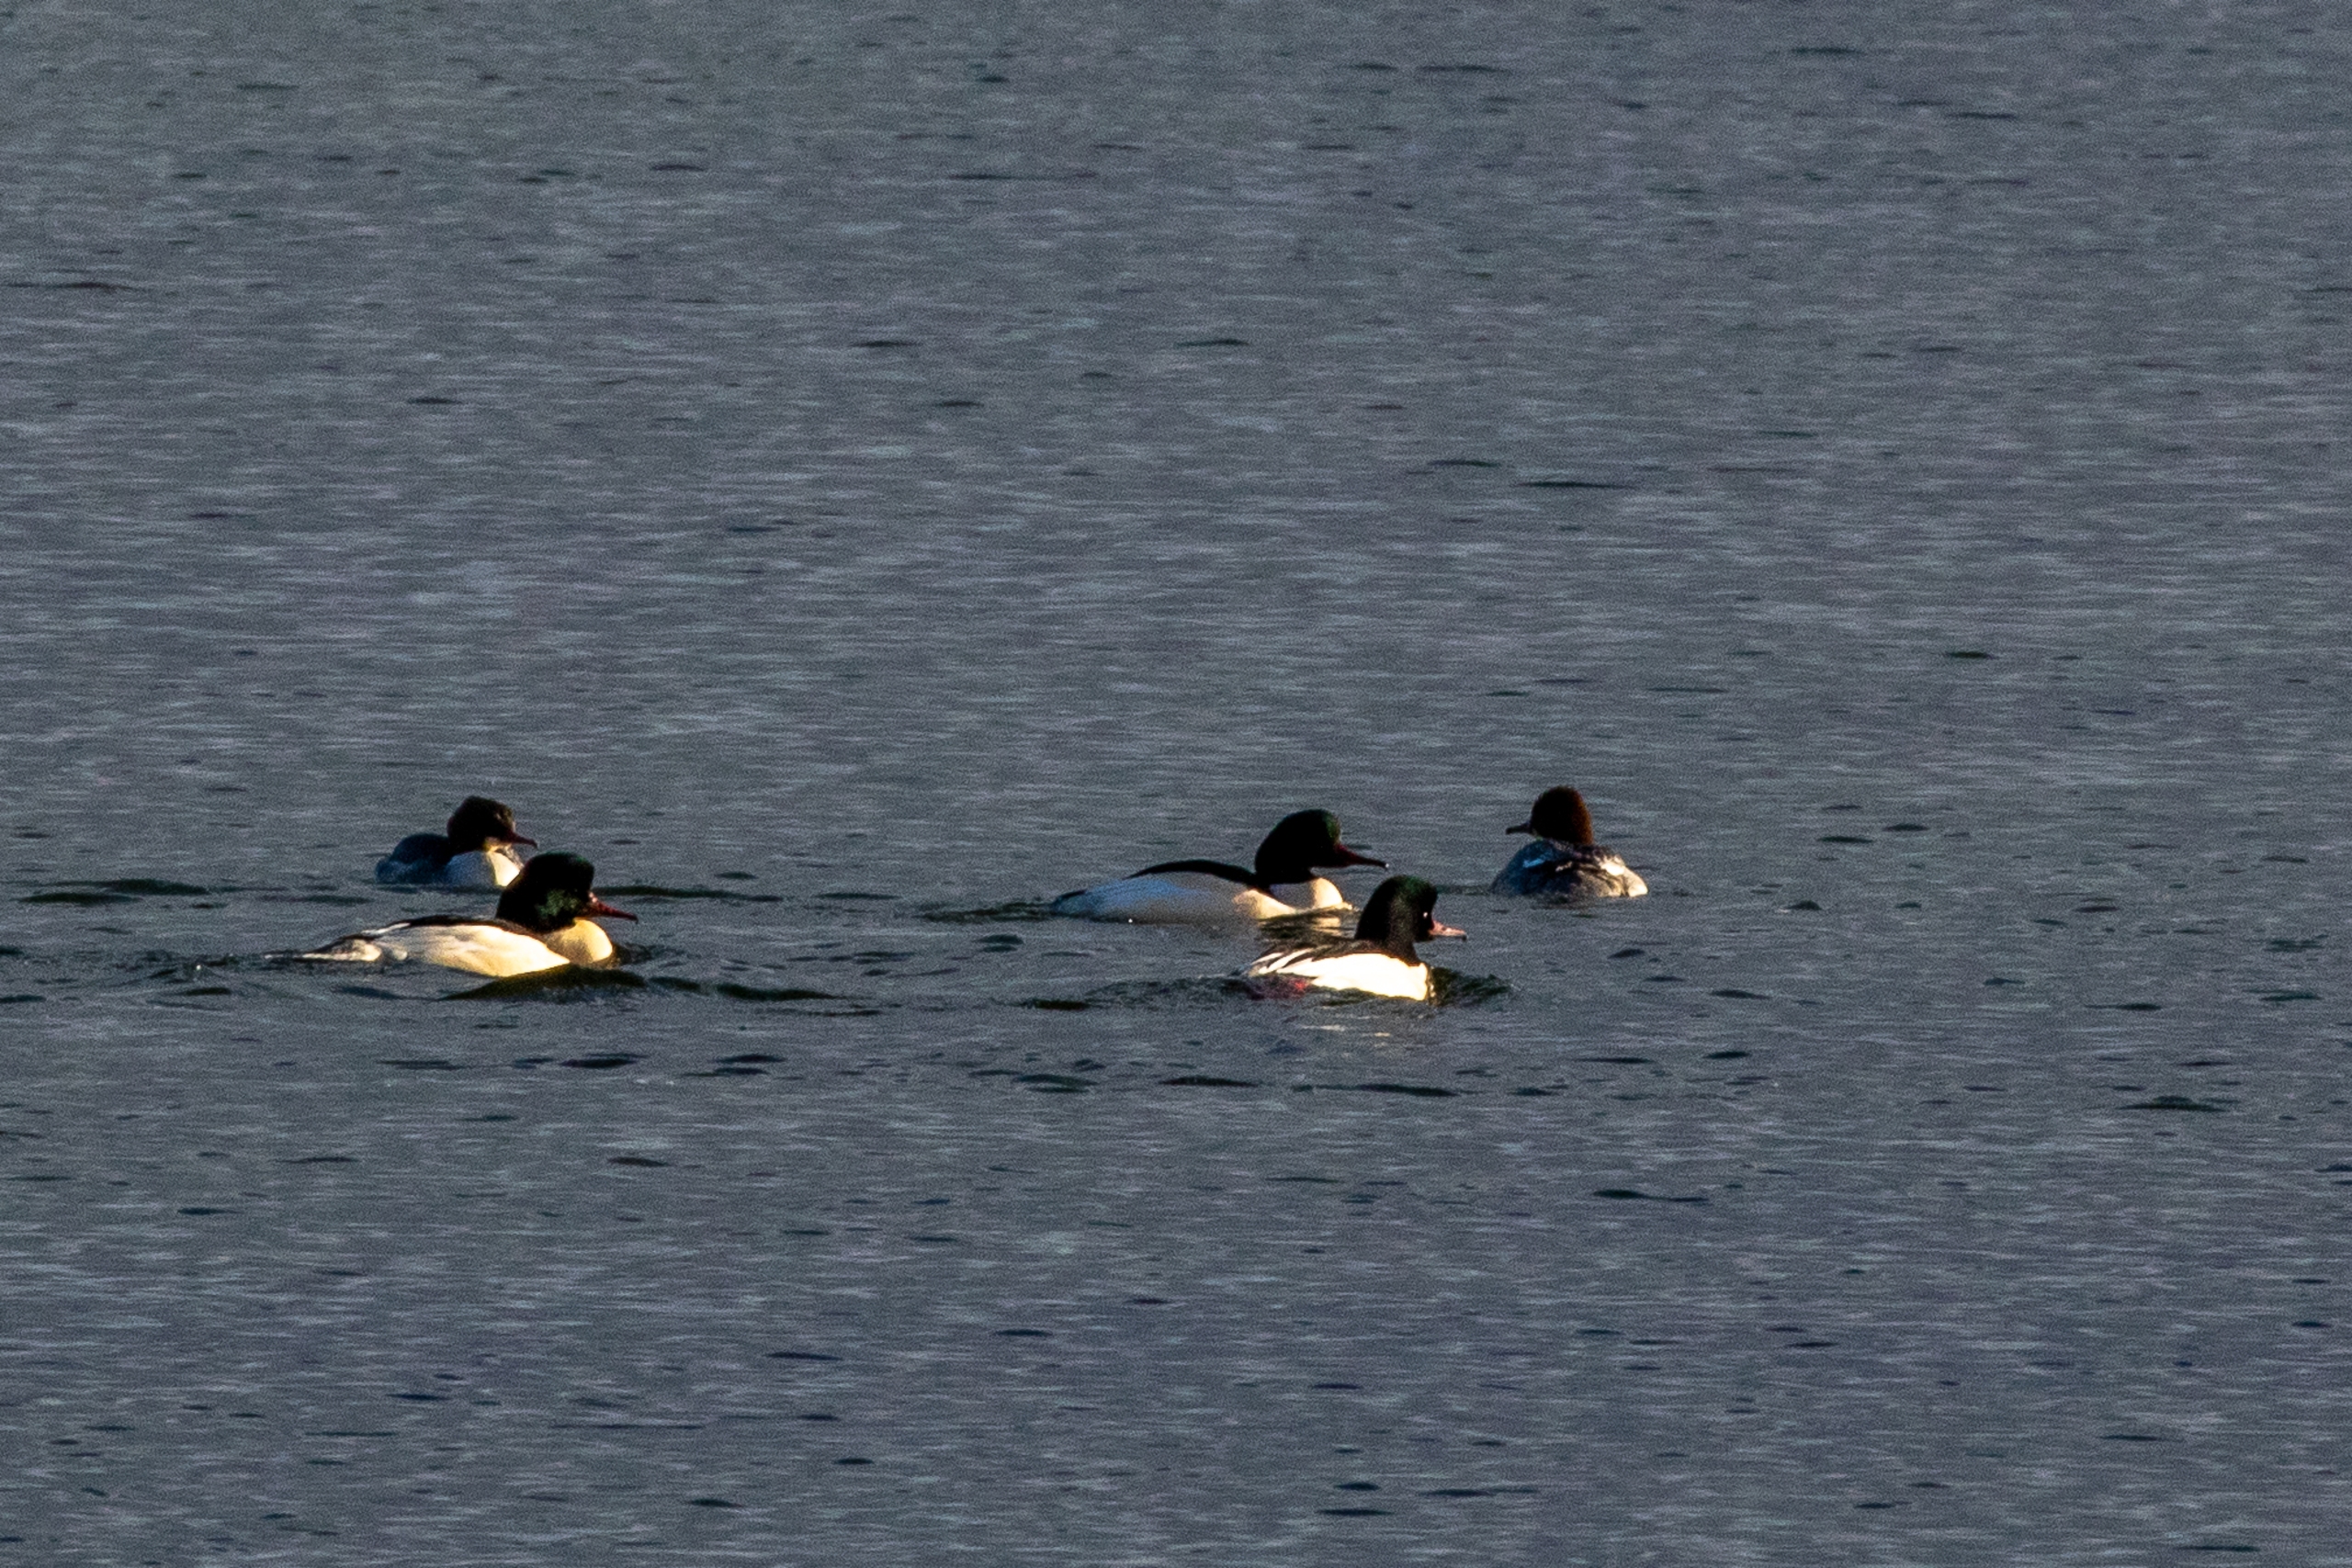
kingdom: Animalia
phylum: Chordata
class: Aves
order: Anseriformes
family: Anatidae
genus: Mergus
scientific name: Mergus merganser
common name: Stor skallesluger
